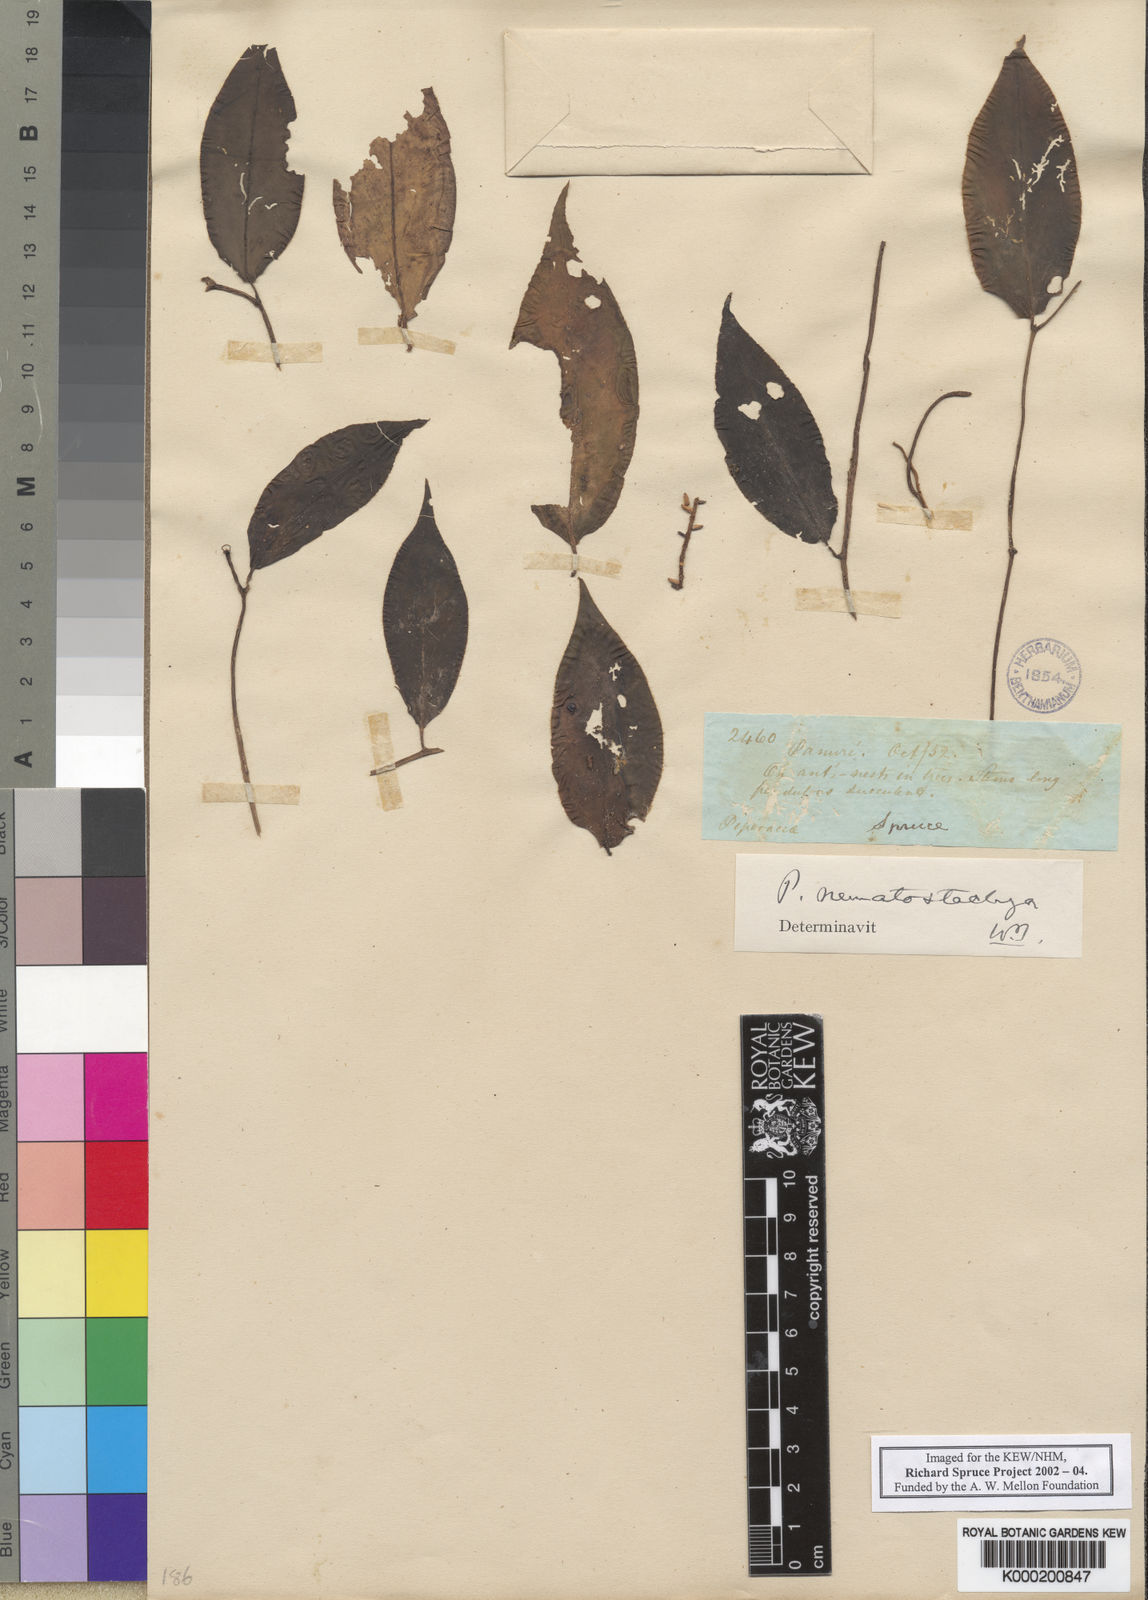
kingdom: Plantae
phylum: Tracheophyta
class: Magnoliopsida
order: Piperales
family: Piperaceae
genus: Peperomia
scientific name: Peperomia macrostachyos
